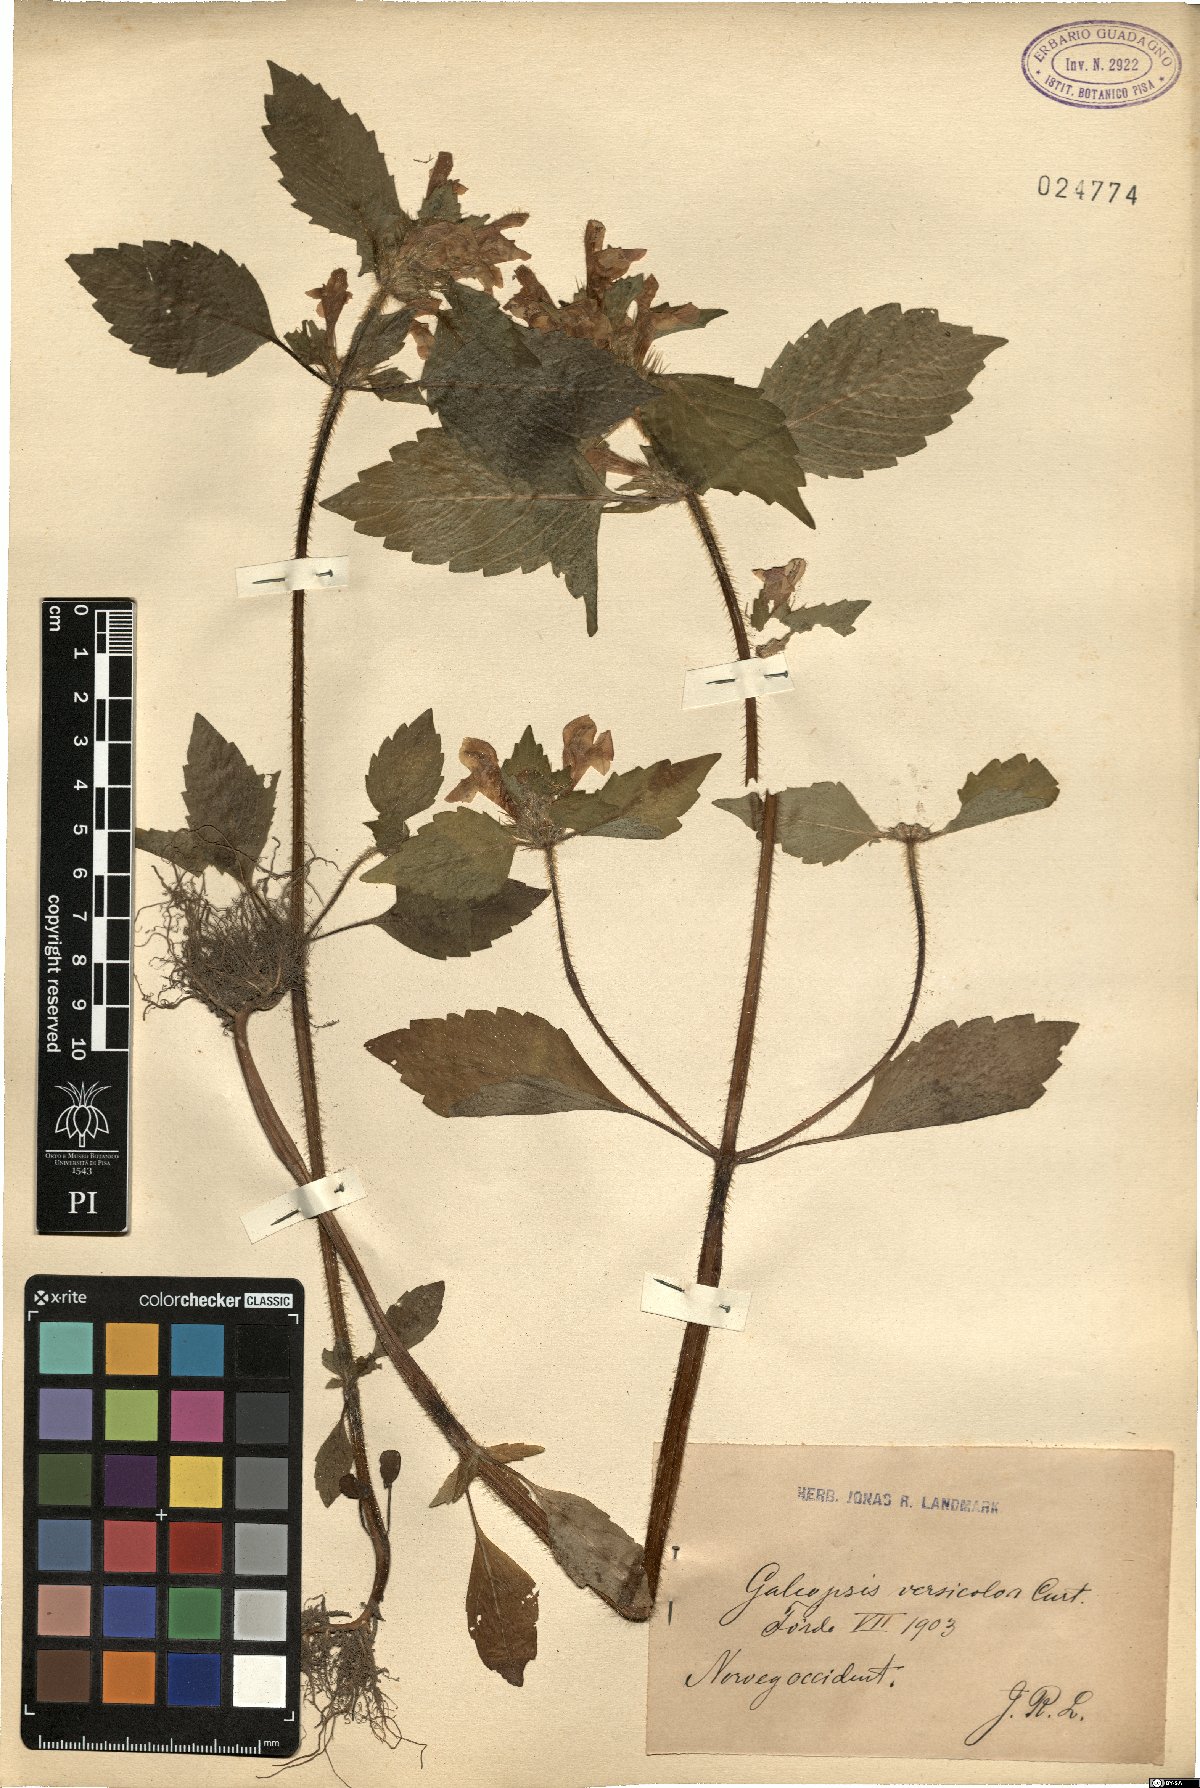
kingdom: Plantae
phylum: Tracheophyta
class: Magnoliopsida
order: Lamiales
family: Lamiaceae
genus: Galeopsis
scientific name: Galeopsis speciosa
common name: Large-flowered hemp-nettle
